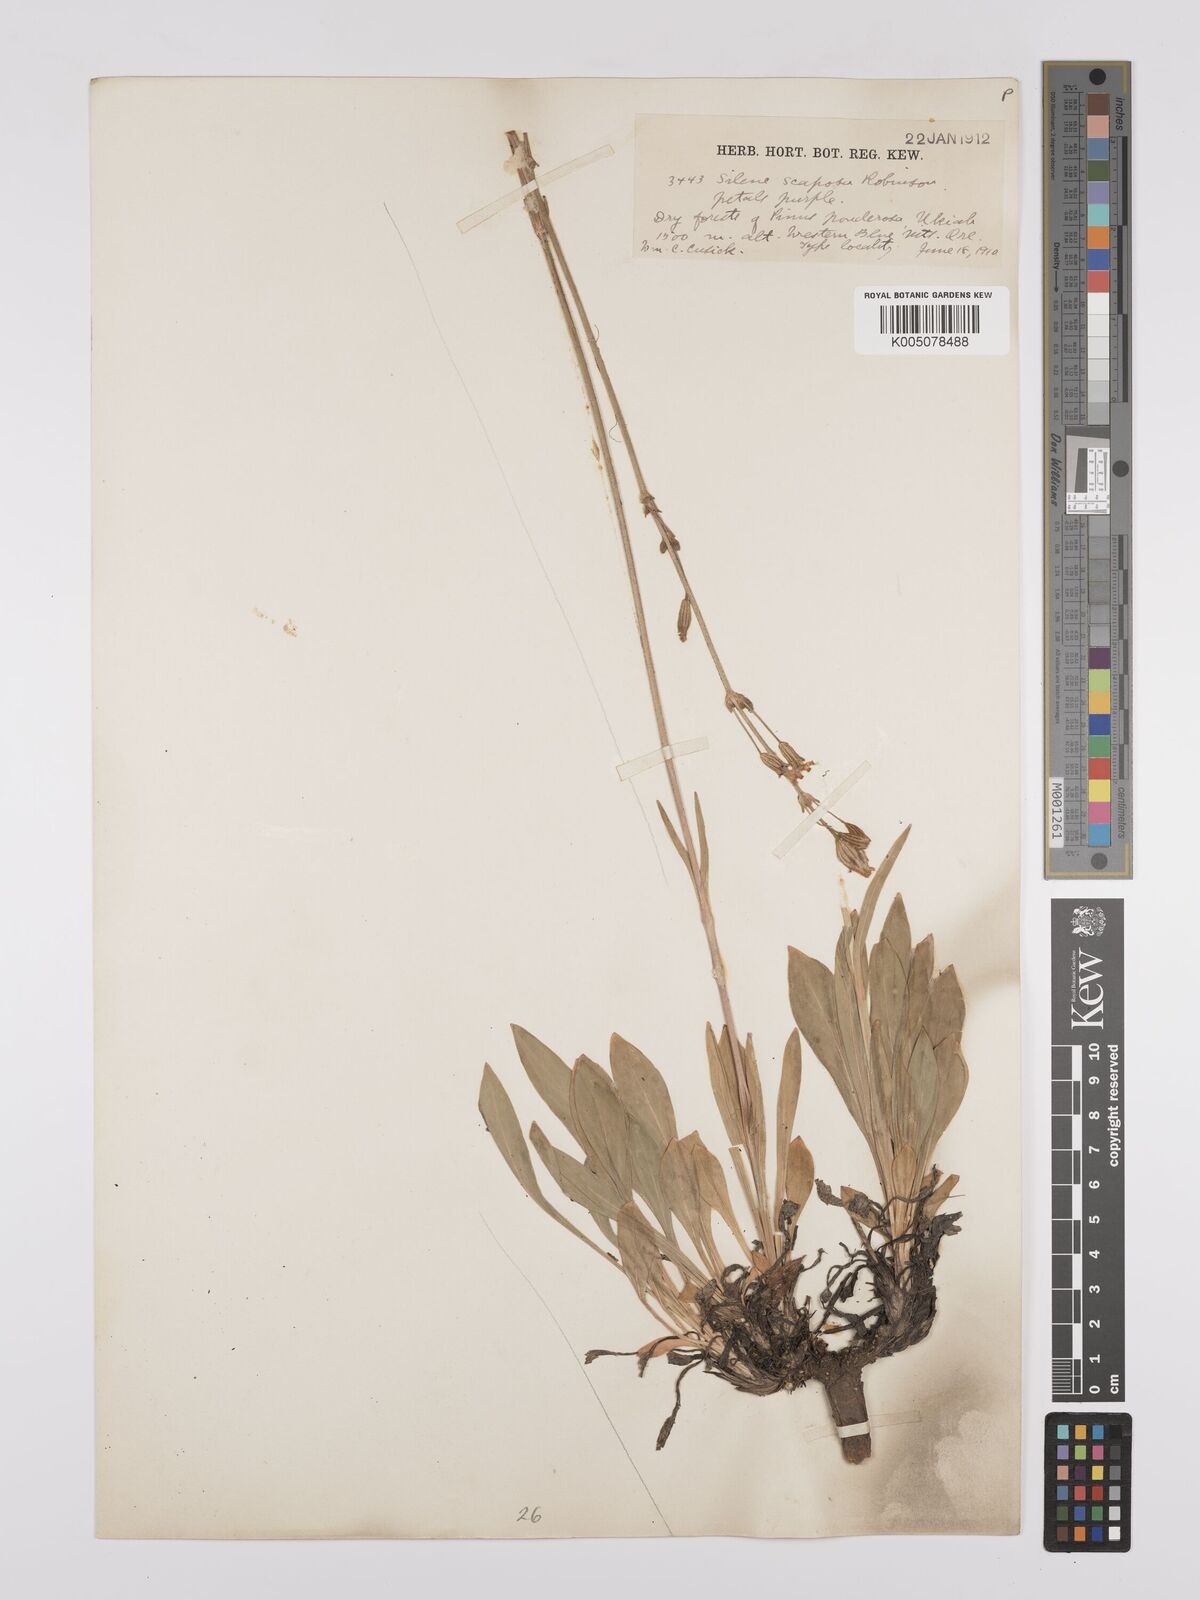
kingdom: Plantae
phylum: Tracheophyta
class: Magnoliopsida
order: Caryophyllales
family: Caryophyllaceae
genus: Silene
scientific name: Silene
